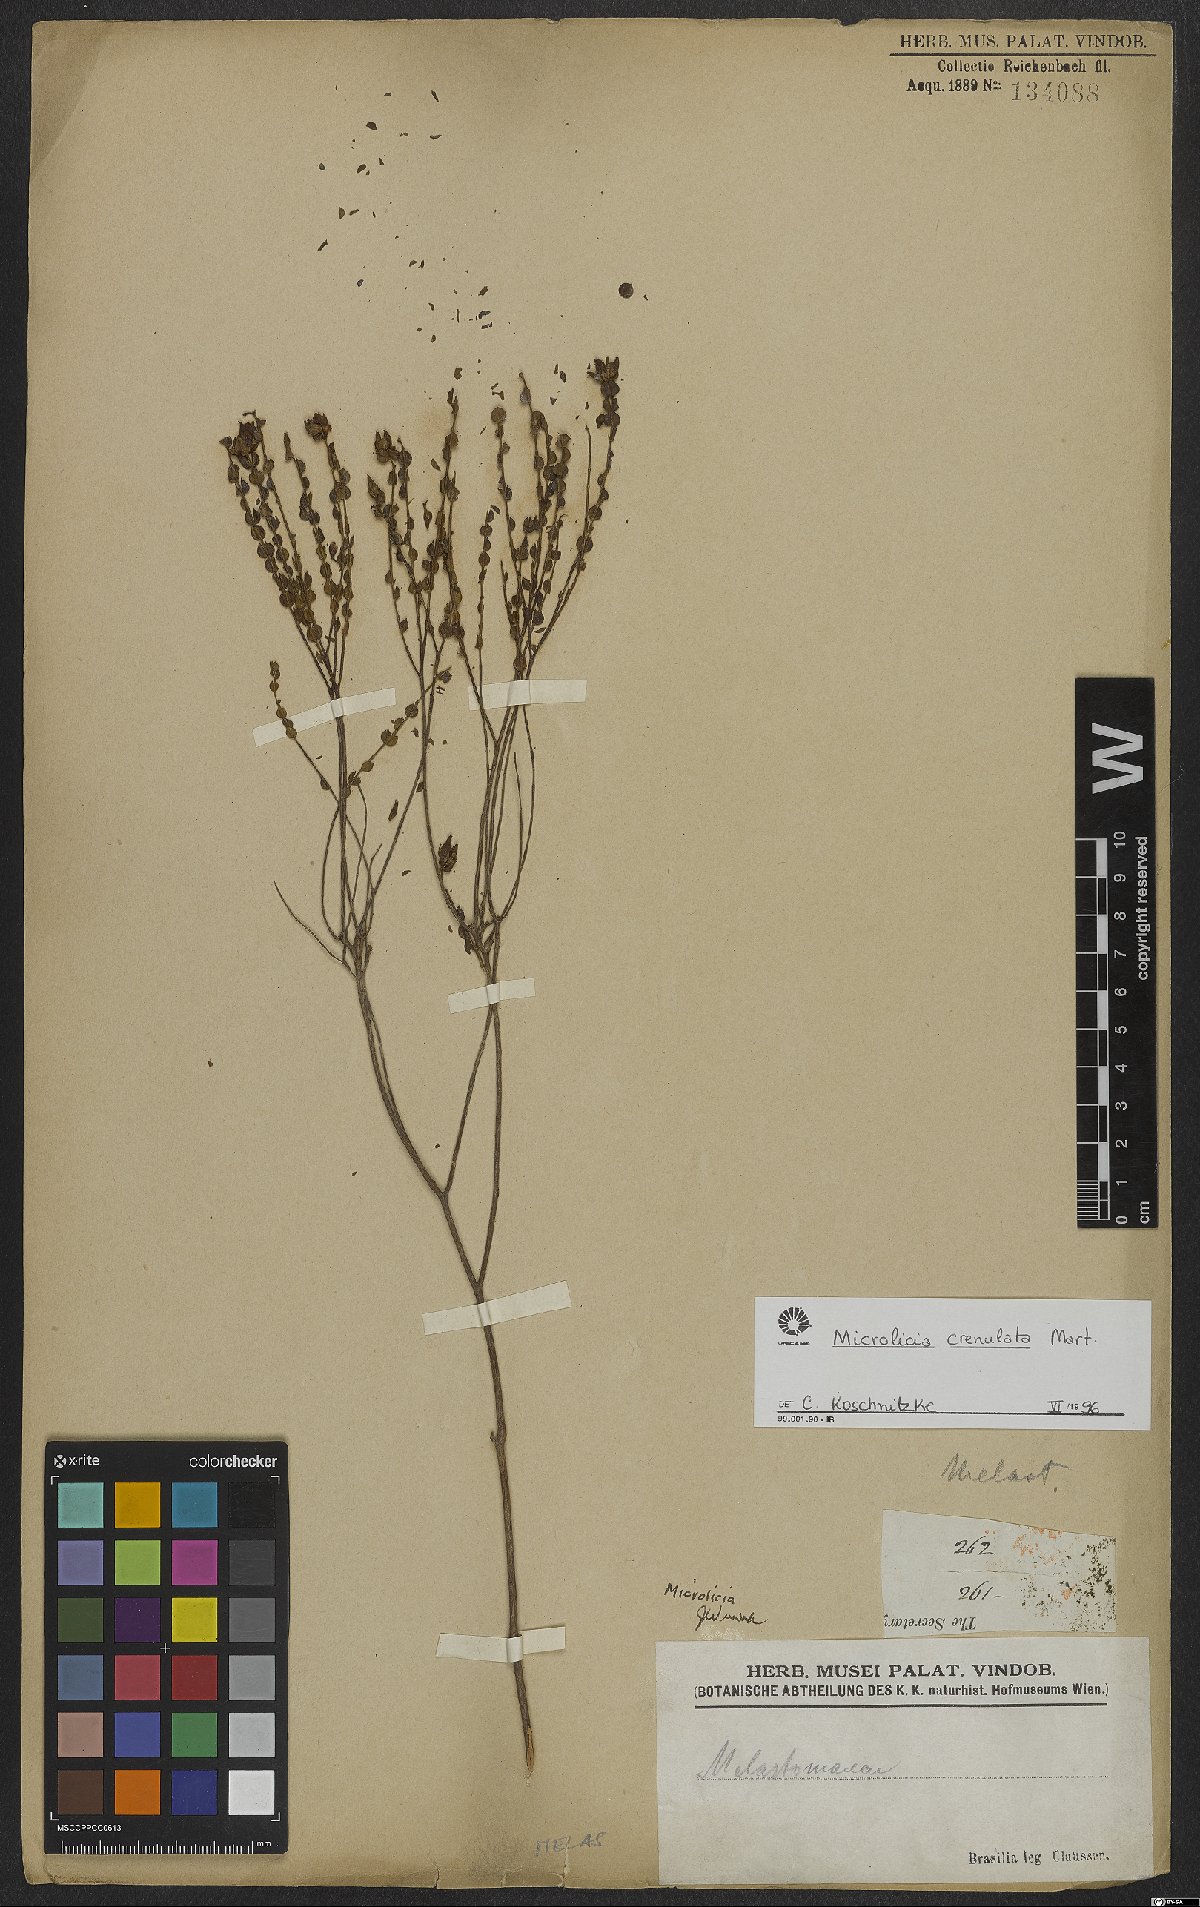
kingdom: Plantae
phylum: Tracheophyta
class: Magnoliopsida
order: Myrtales
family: Melastomataceae
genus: Microlicia
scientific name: Microlicia crenulata
